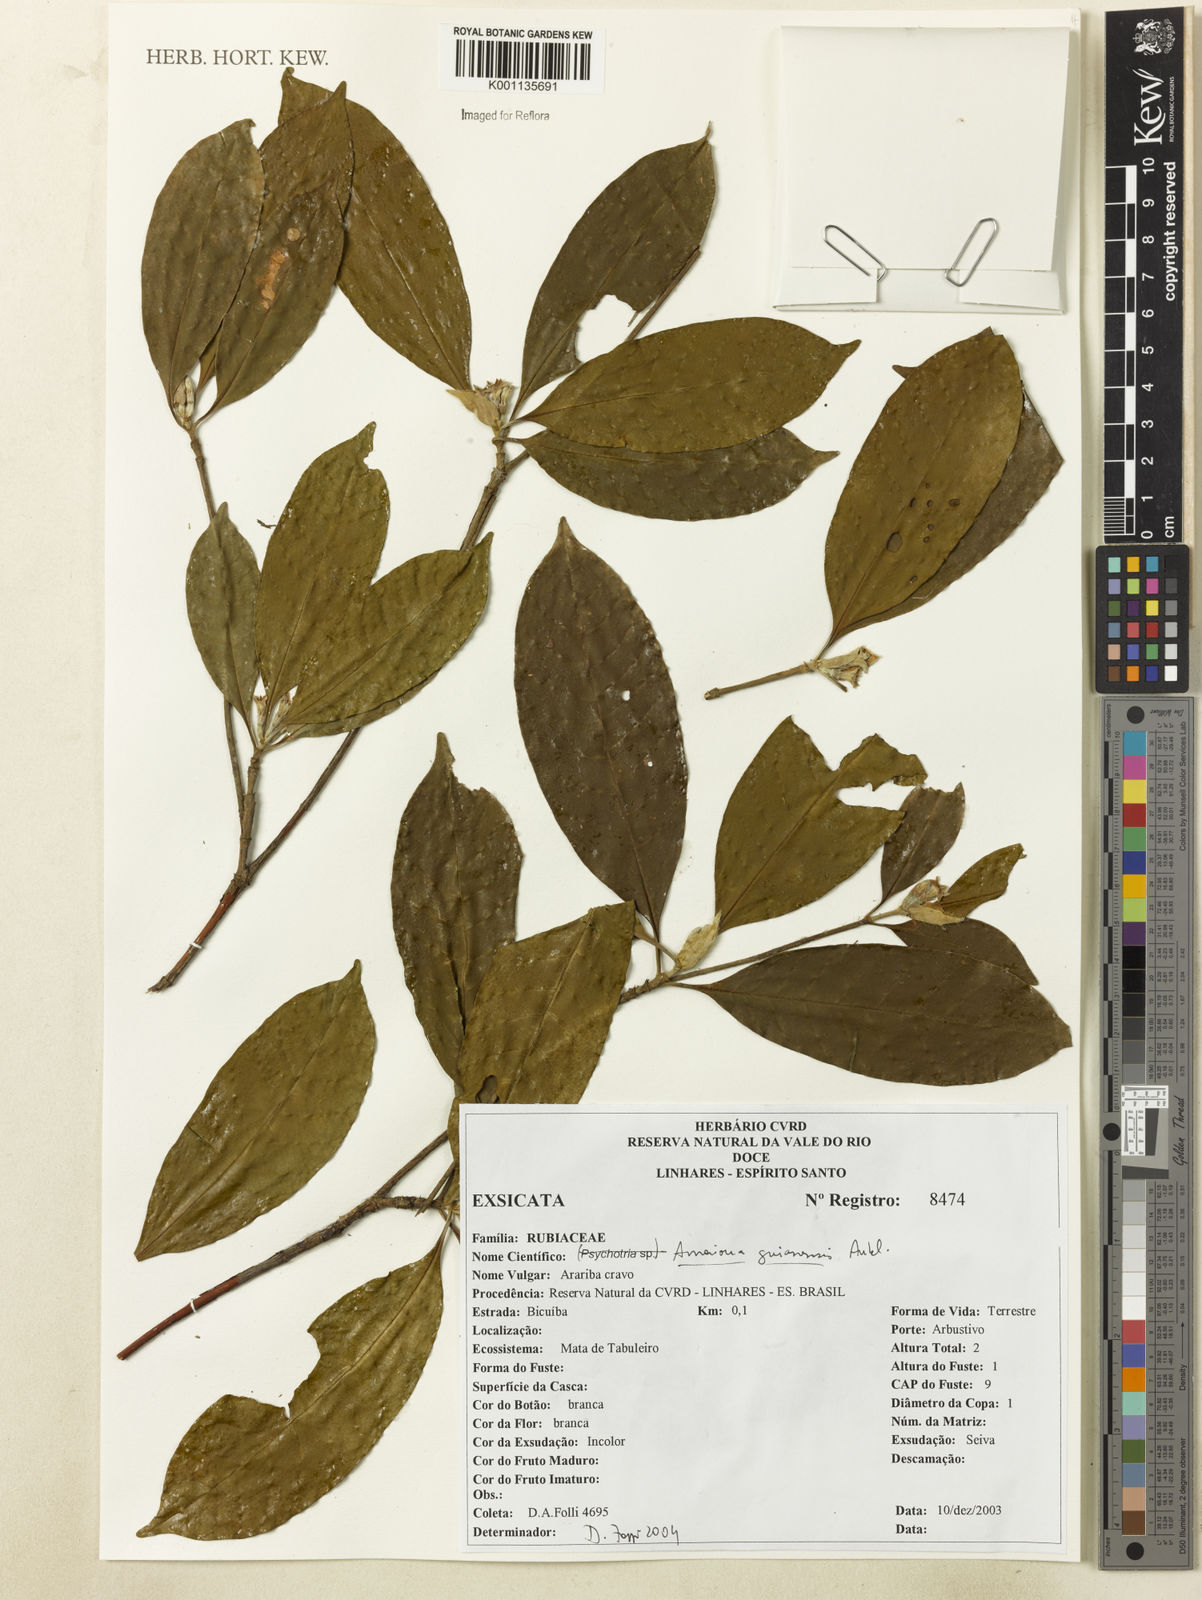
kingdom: Plantae
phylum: Tracheophyta
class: Magnoliopsida
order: Gentianales
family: Rubiaceae
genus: Amaioua
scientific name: Amaioua guianensis
